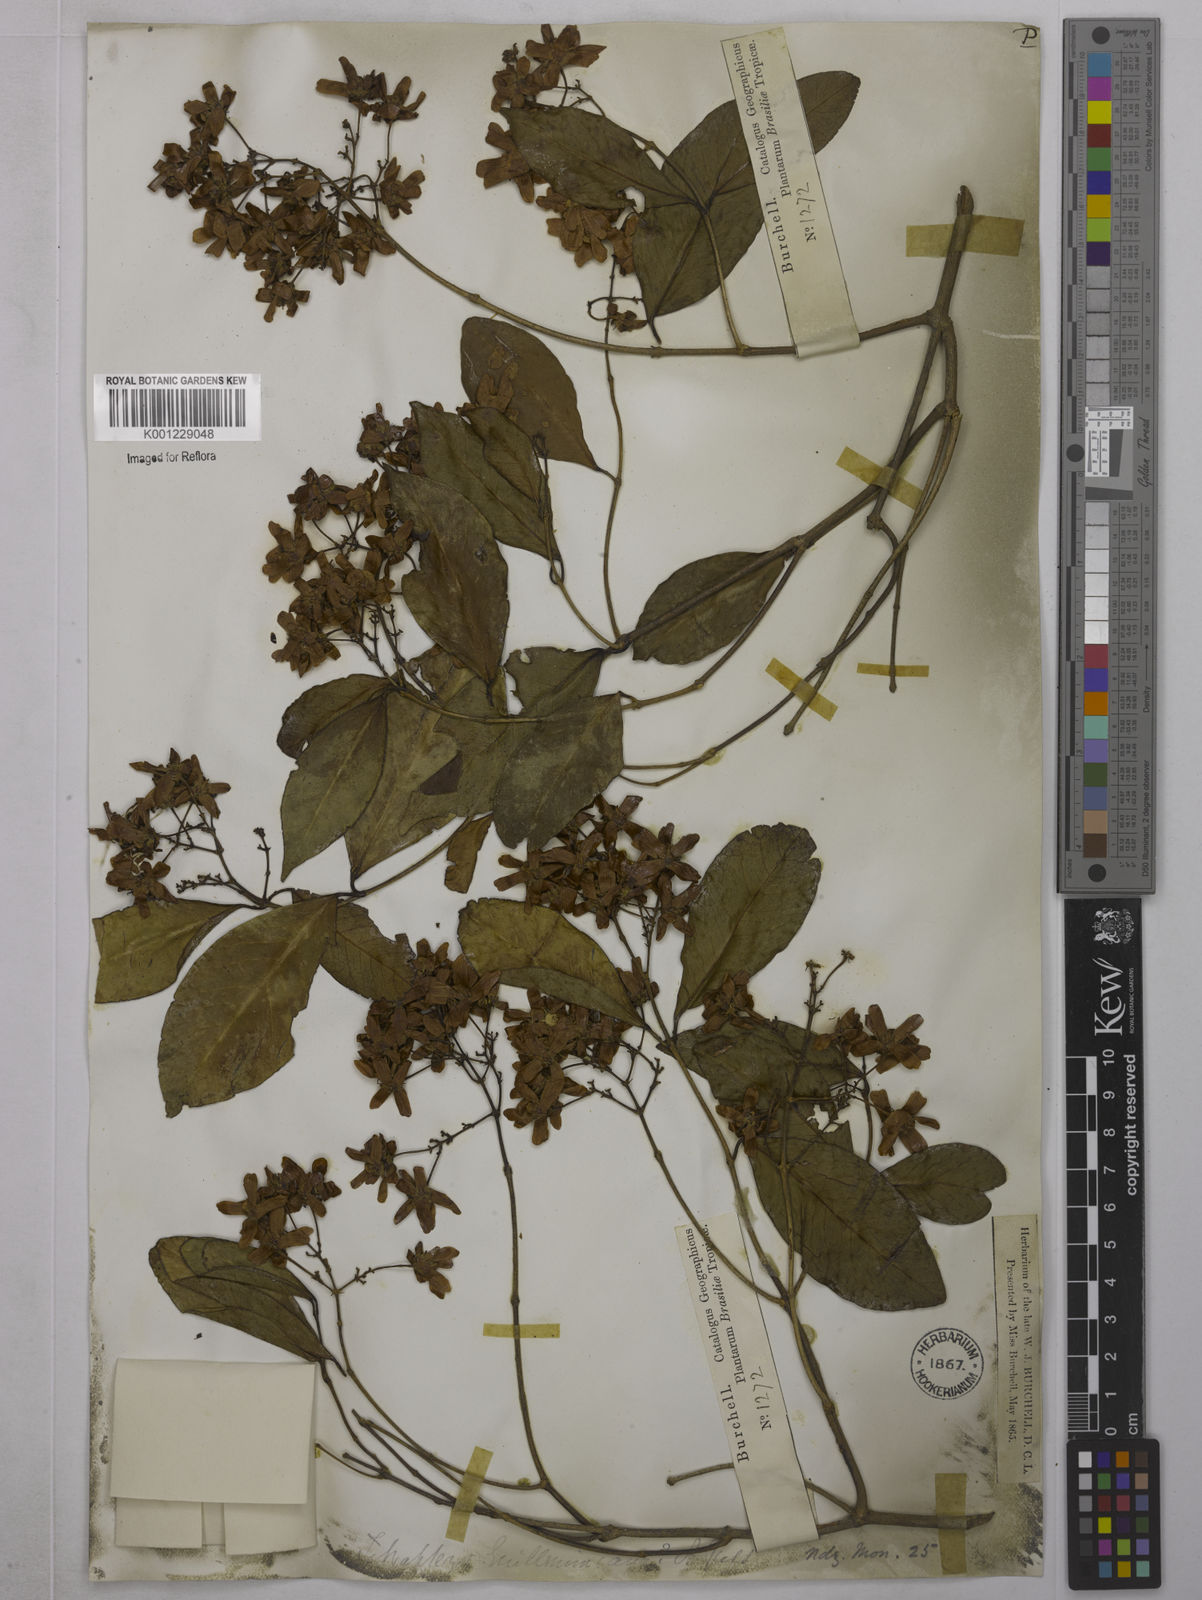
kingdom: Plantae
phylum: Tracheophyta
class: Magnoliopsida
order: Malpighiales
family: Malpighiaceae
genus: Niedenzuella
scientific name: Niedenzuella acutifolia
